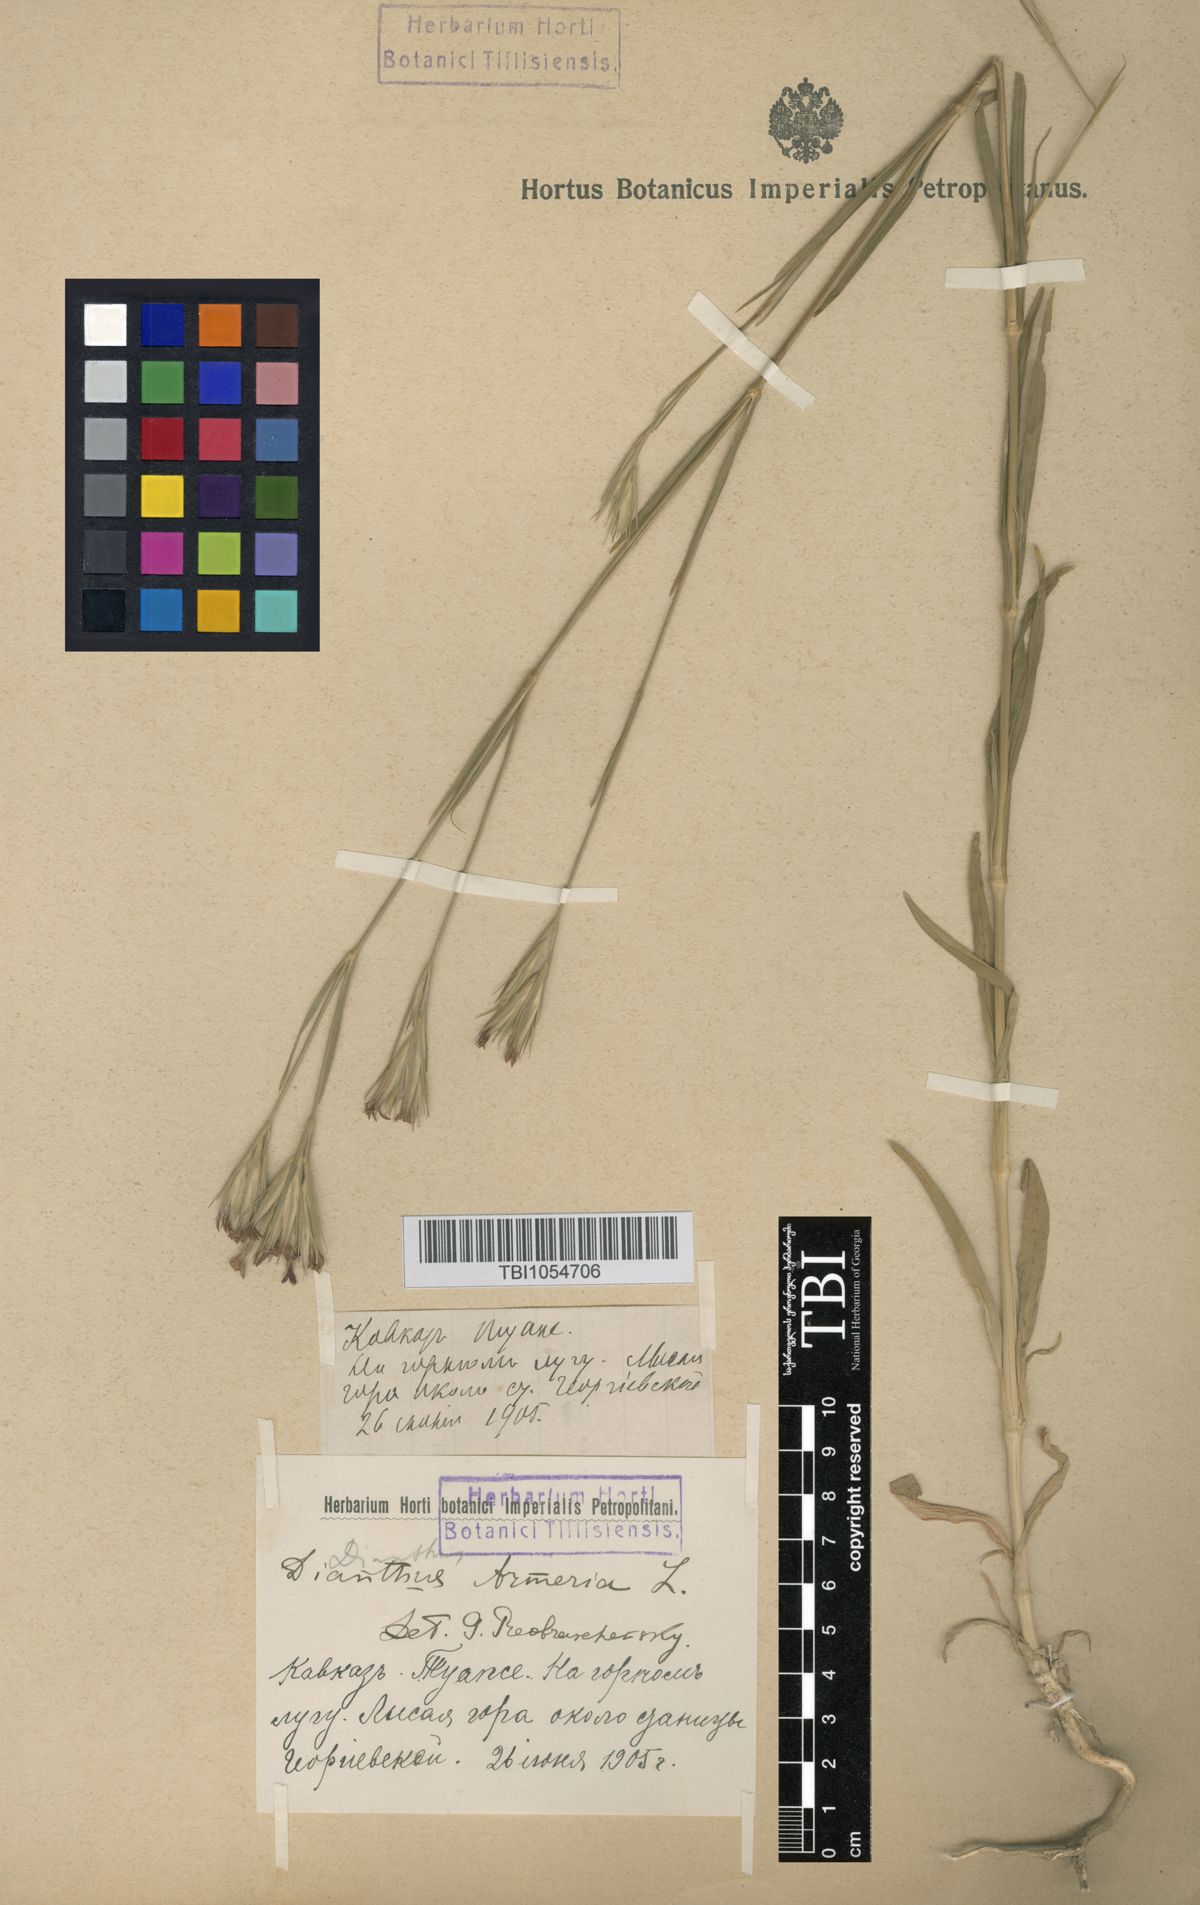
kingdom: Plantae
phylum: Tracheophyta
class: Magnoliopsida
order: Caryophyllales
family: Caryophyllaceae
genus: Dianthus
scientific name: Dianthus armeria
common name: Deptford pink
